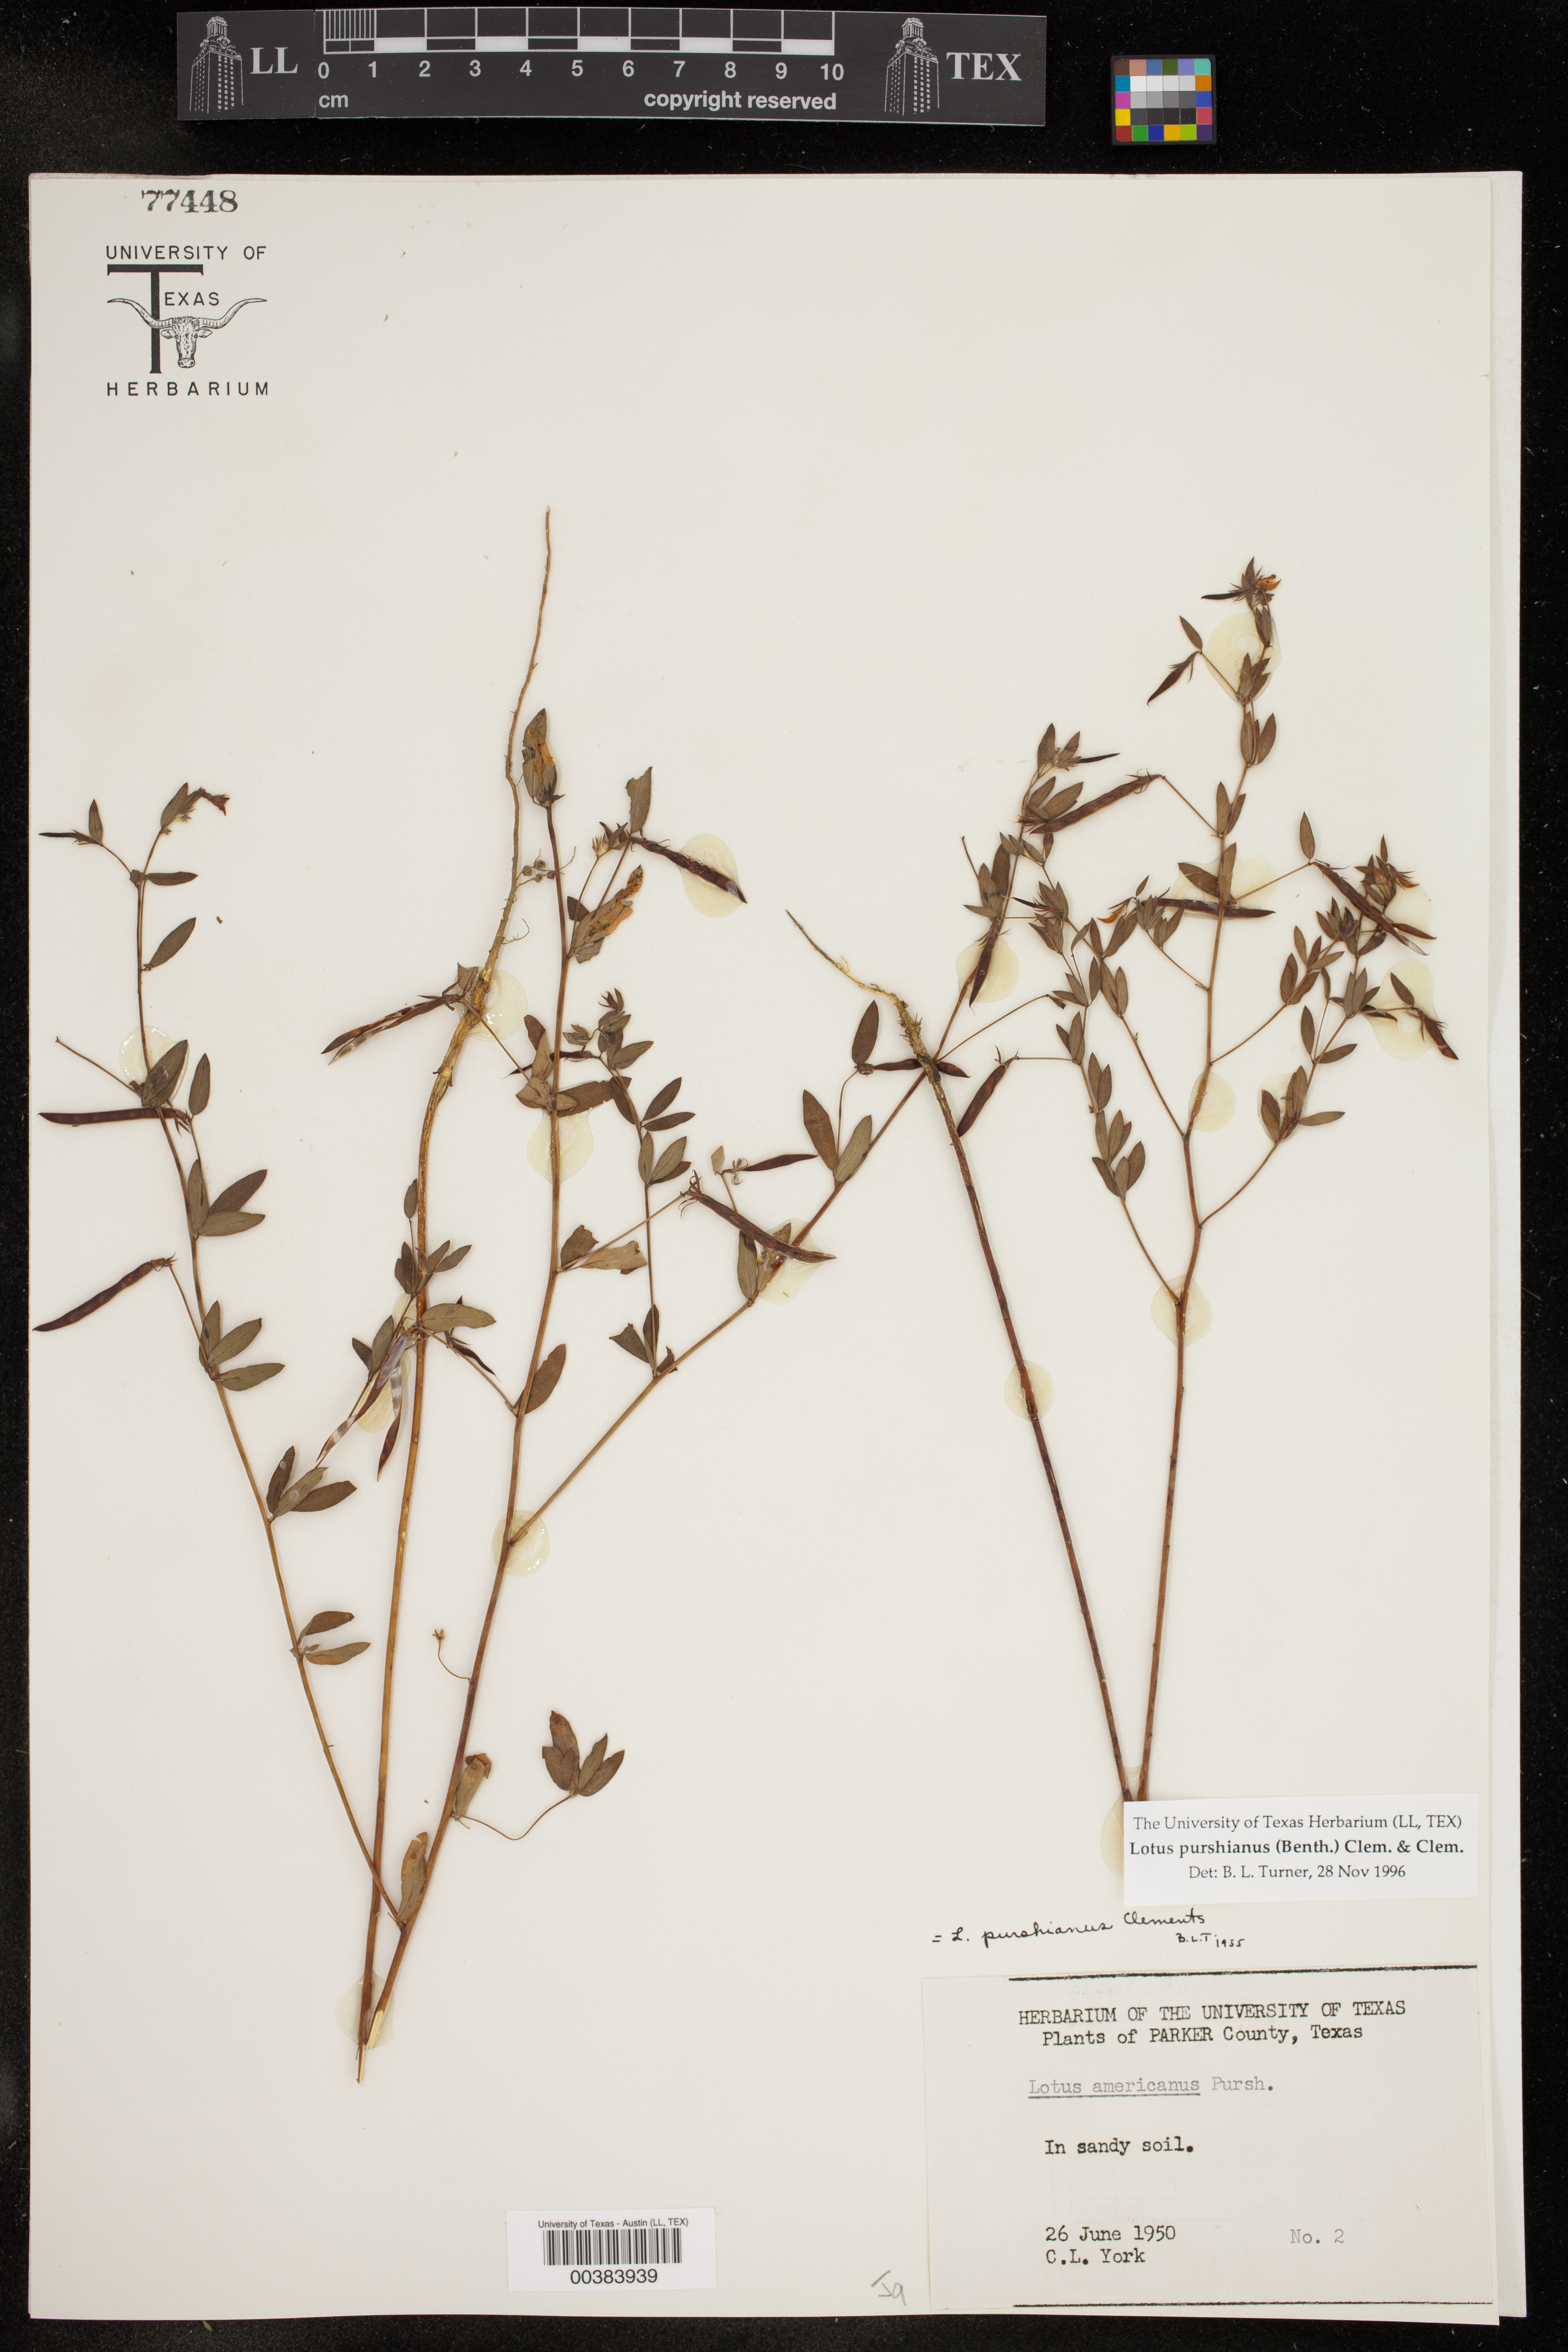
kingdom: Plantae
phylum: Tracheophyta
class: Magnoliopsida
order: Fabales
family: Fabaceae
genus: Acmispon
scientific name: Acmispon americanus
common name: American bird's-foot trefoil
